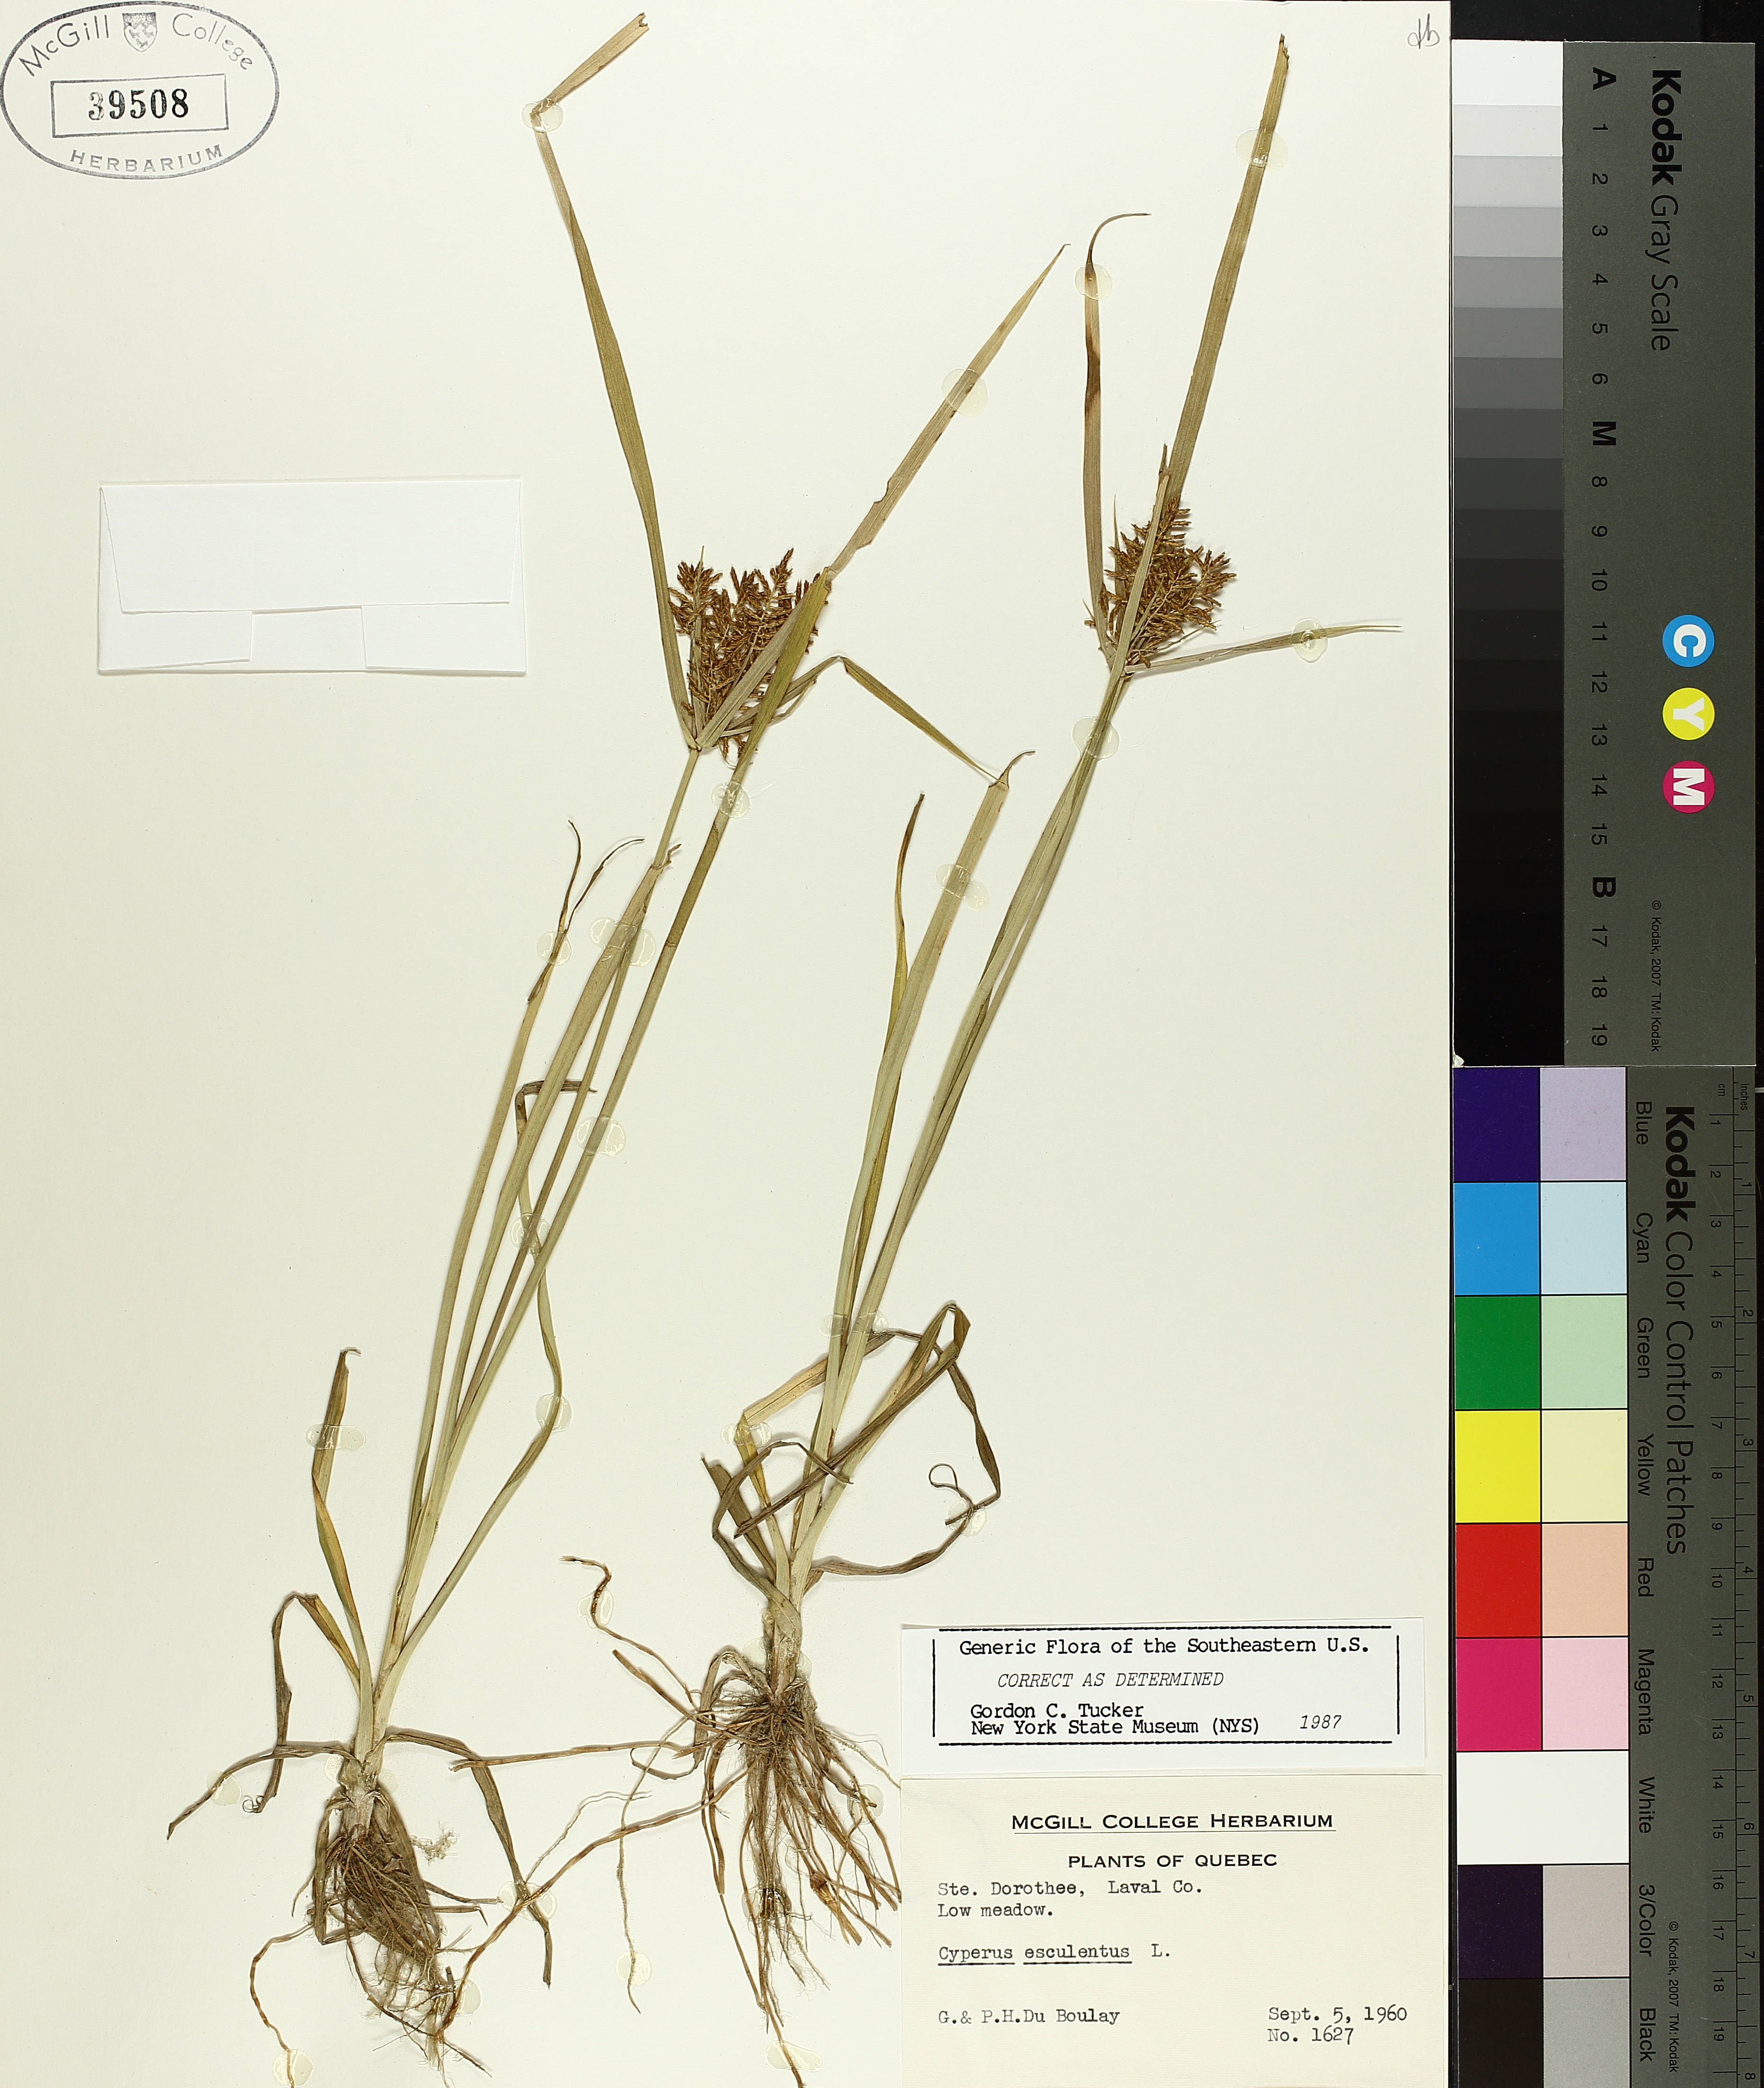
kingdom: Plantae
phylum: Tracheophyta
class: Liliopsida
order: Poales
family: Cyperaceae
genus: Cyperus
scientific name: Cyperus esculentus
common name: Yellow nutsedge
